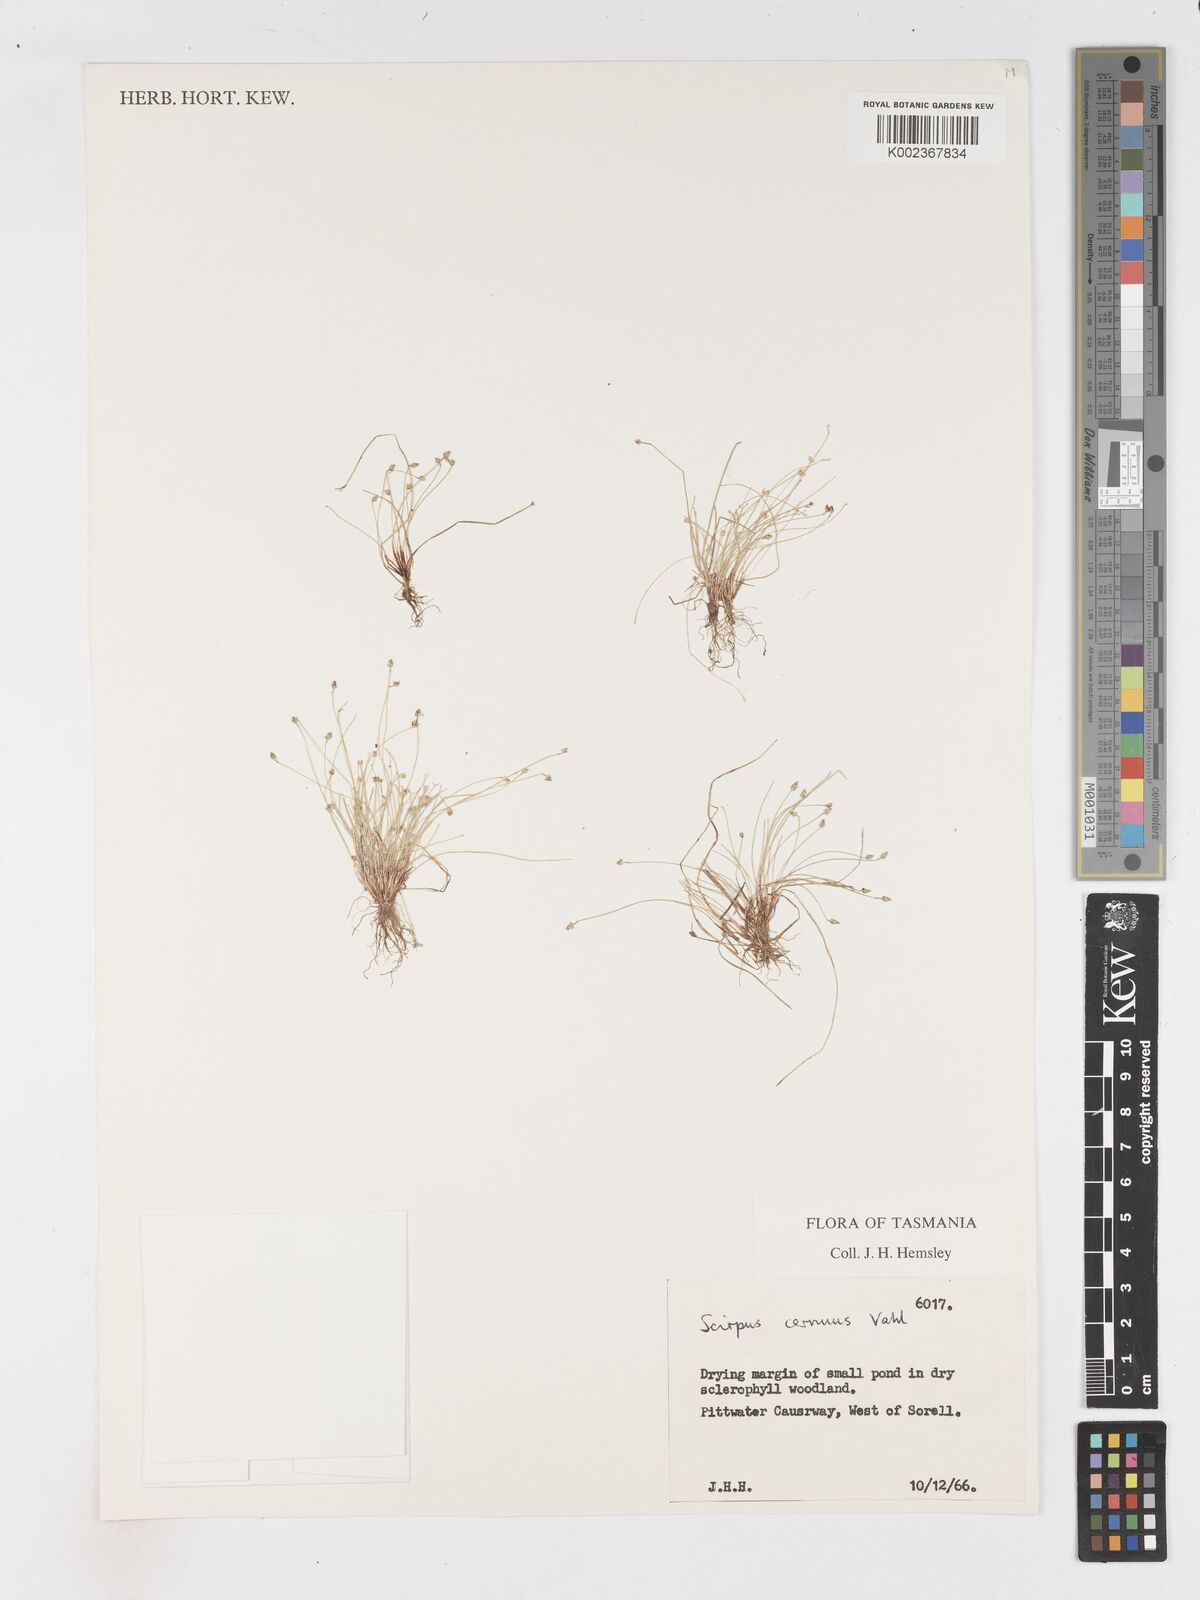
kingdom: Plantae
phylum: Tracheophyta
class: Liliopsida
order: Poales
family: Cyperaceae
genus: Isolepis
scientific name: Isolepis cernua
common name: Slender club-rush
